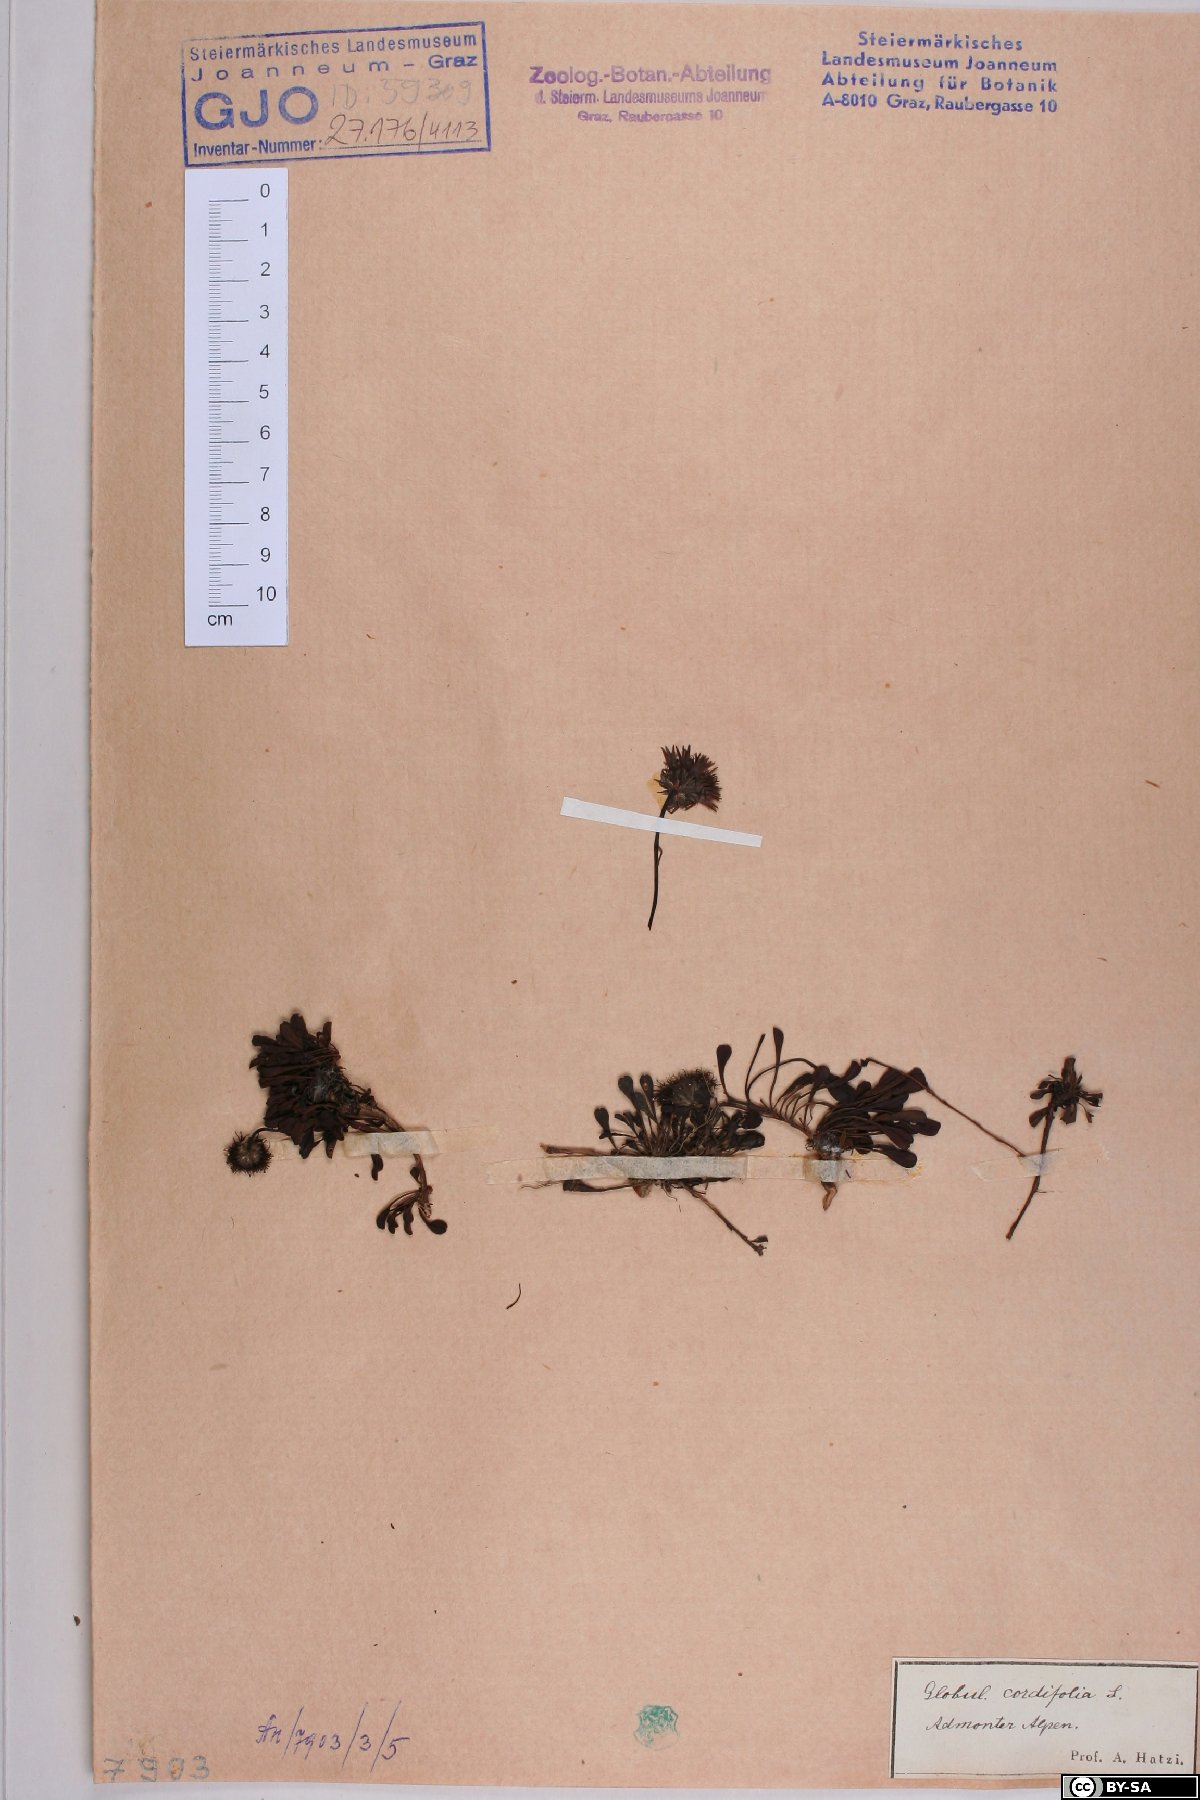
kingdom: Plantae
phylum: Tracheophyta
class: Magnoliopsida
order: Lamiales
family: Plantaginaceae
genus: Globularia
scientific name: Globularia cordifolia
